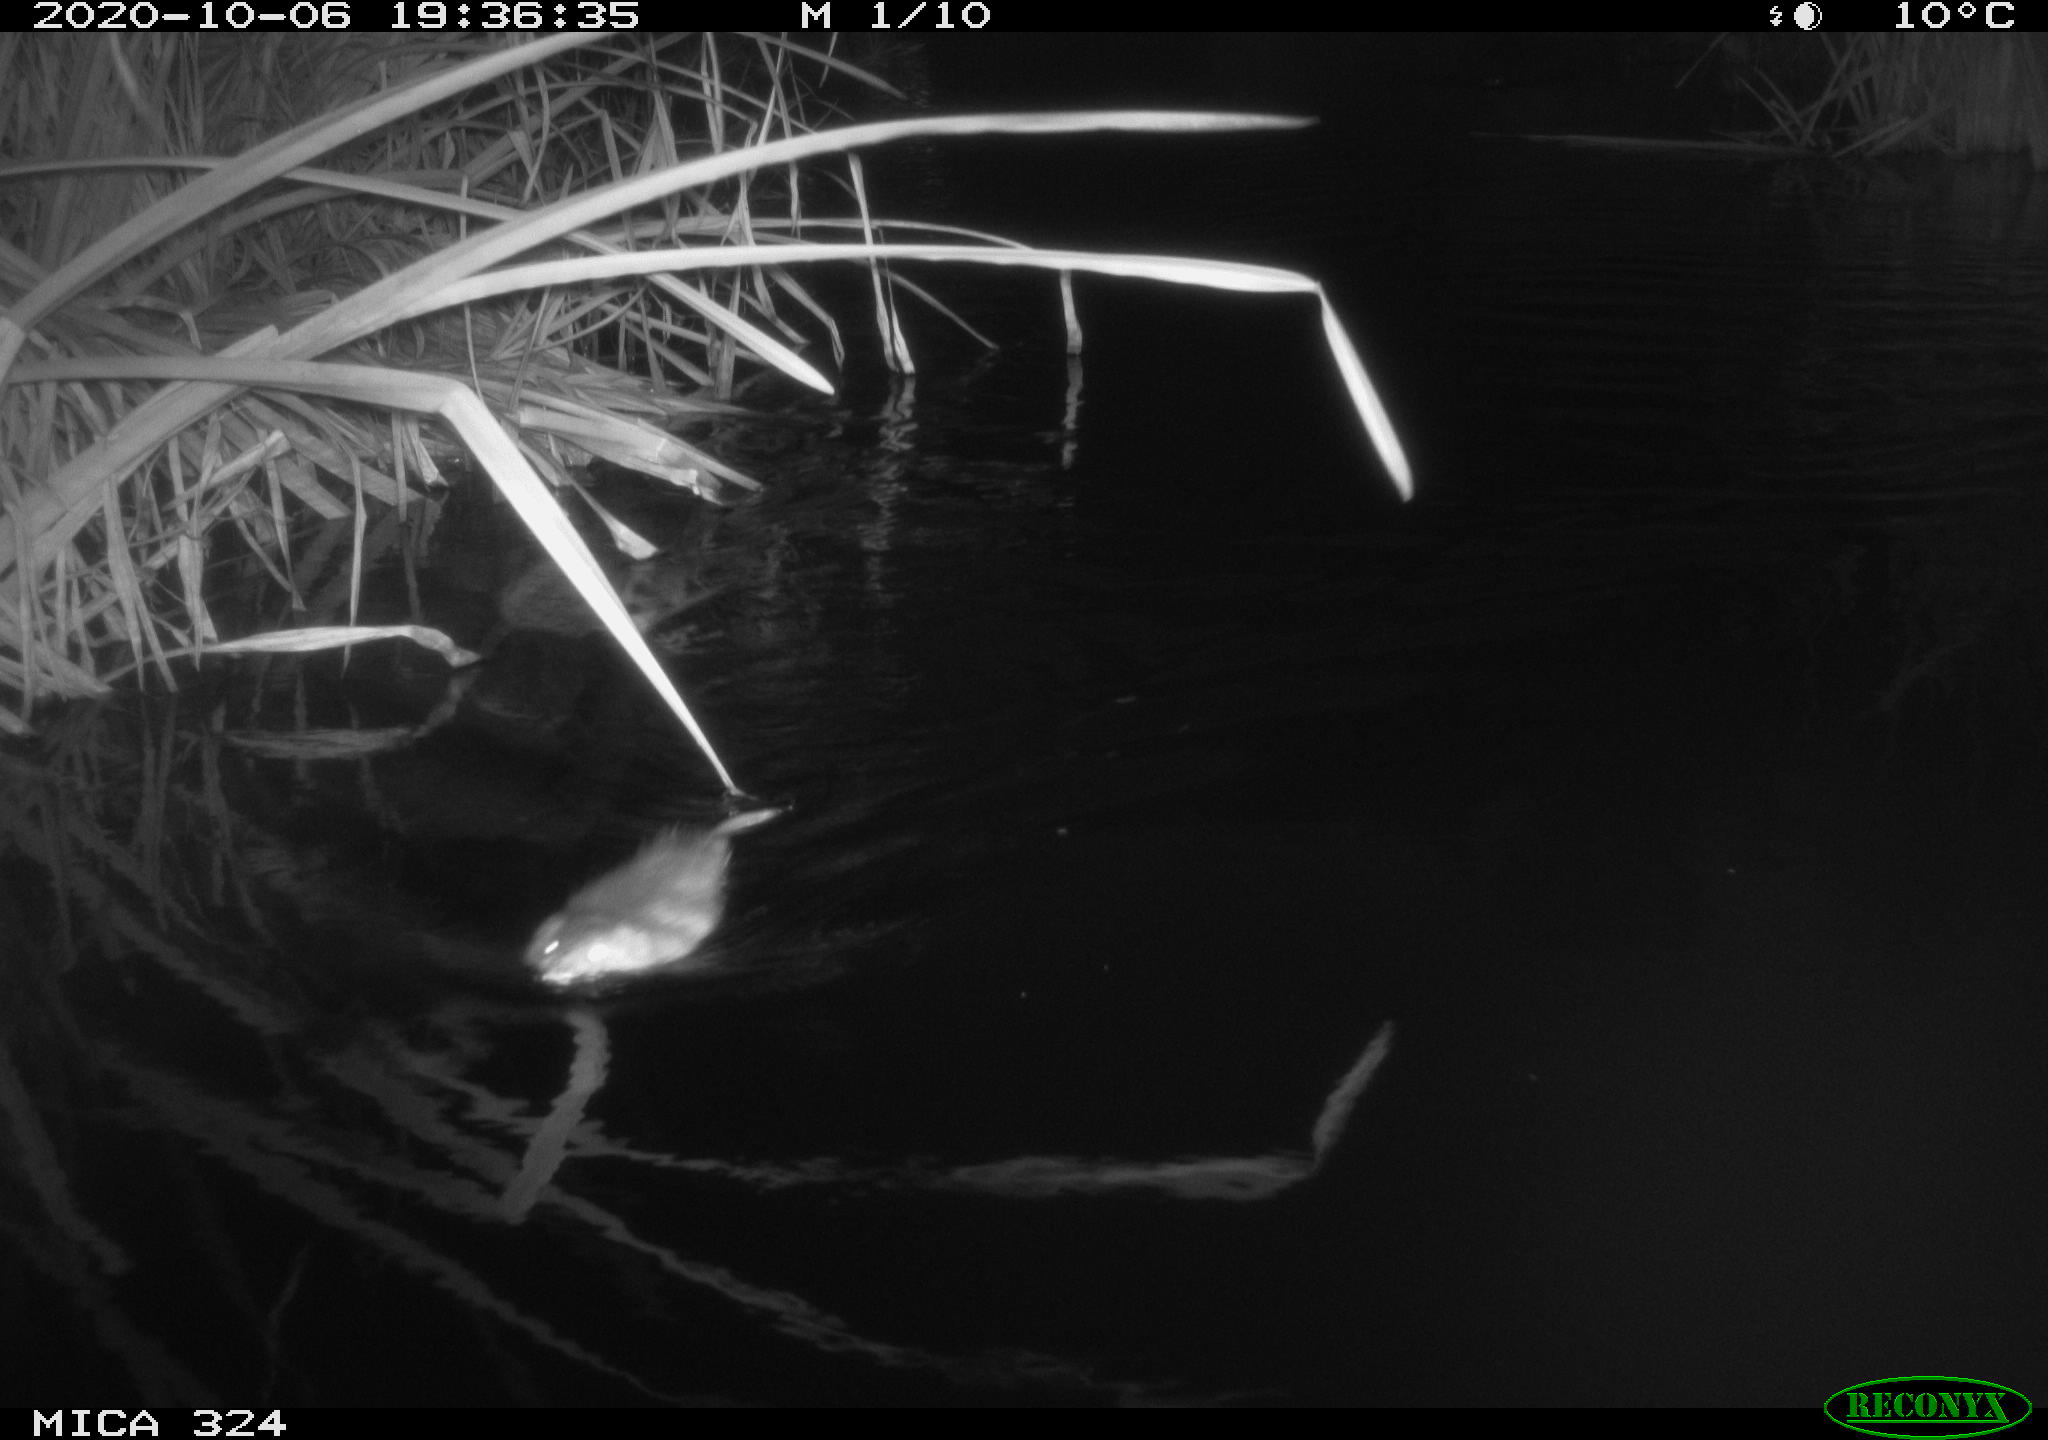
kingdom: Animalia
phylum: Chordata
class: Mammalia
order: Rodentia
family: Myocastoridae
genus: Myocastor
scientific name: Myocastor coypus
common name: Coypu
